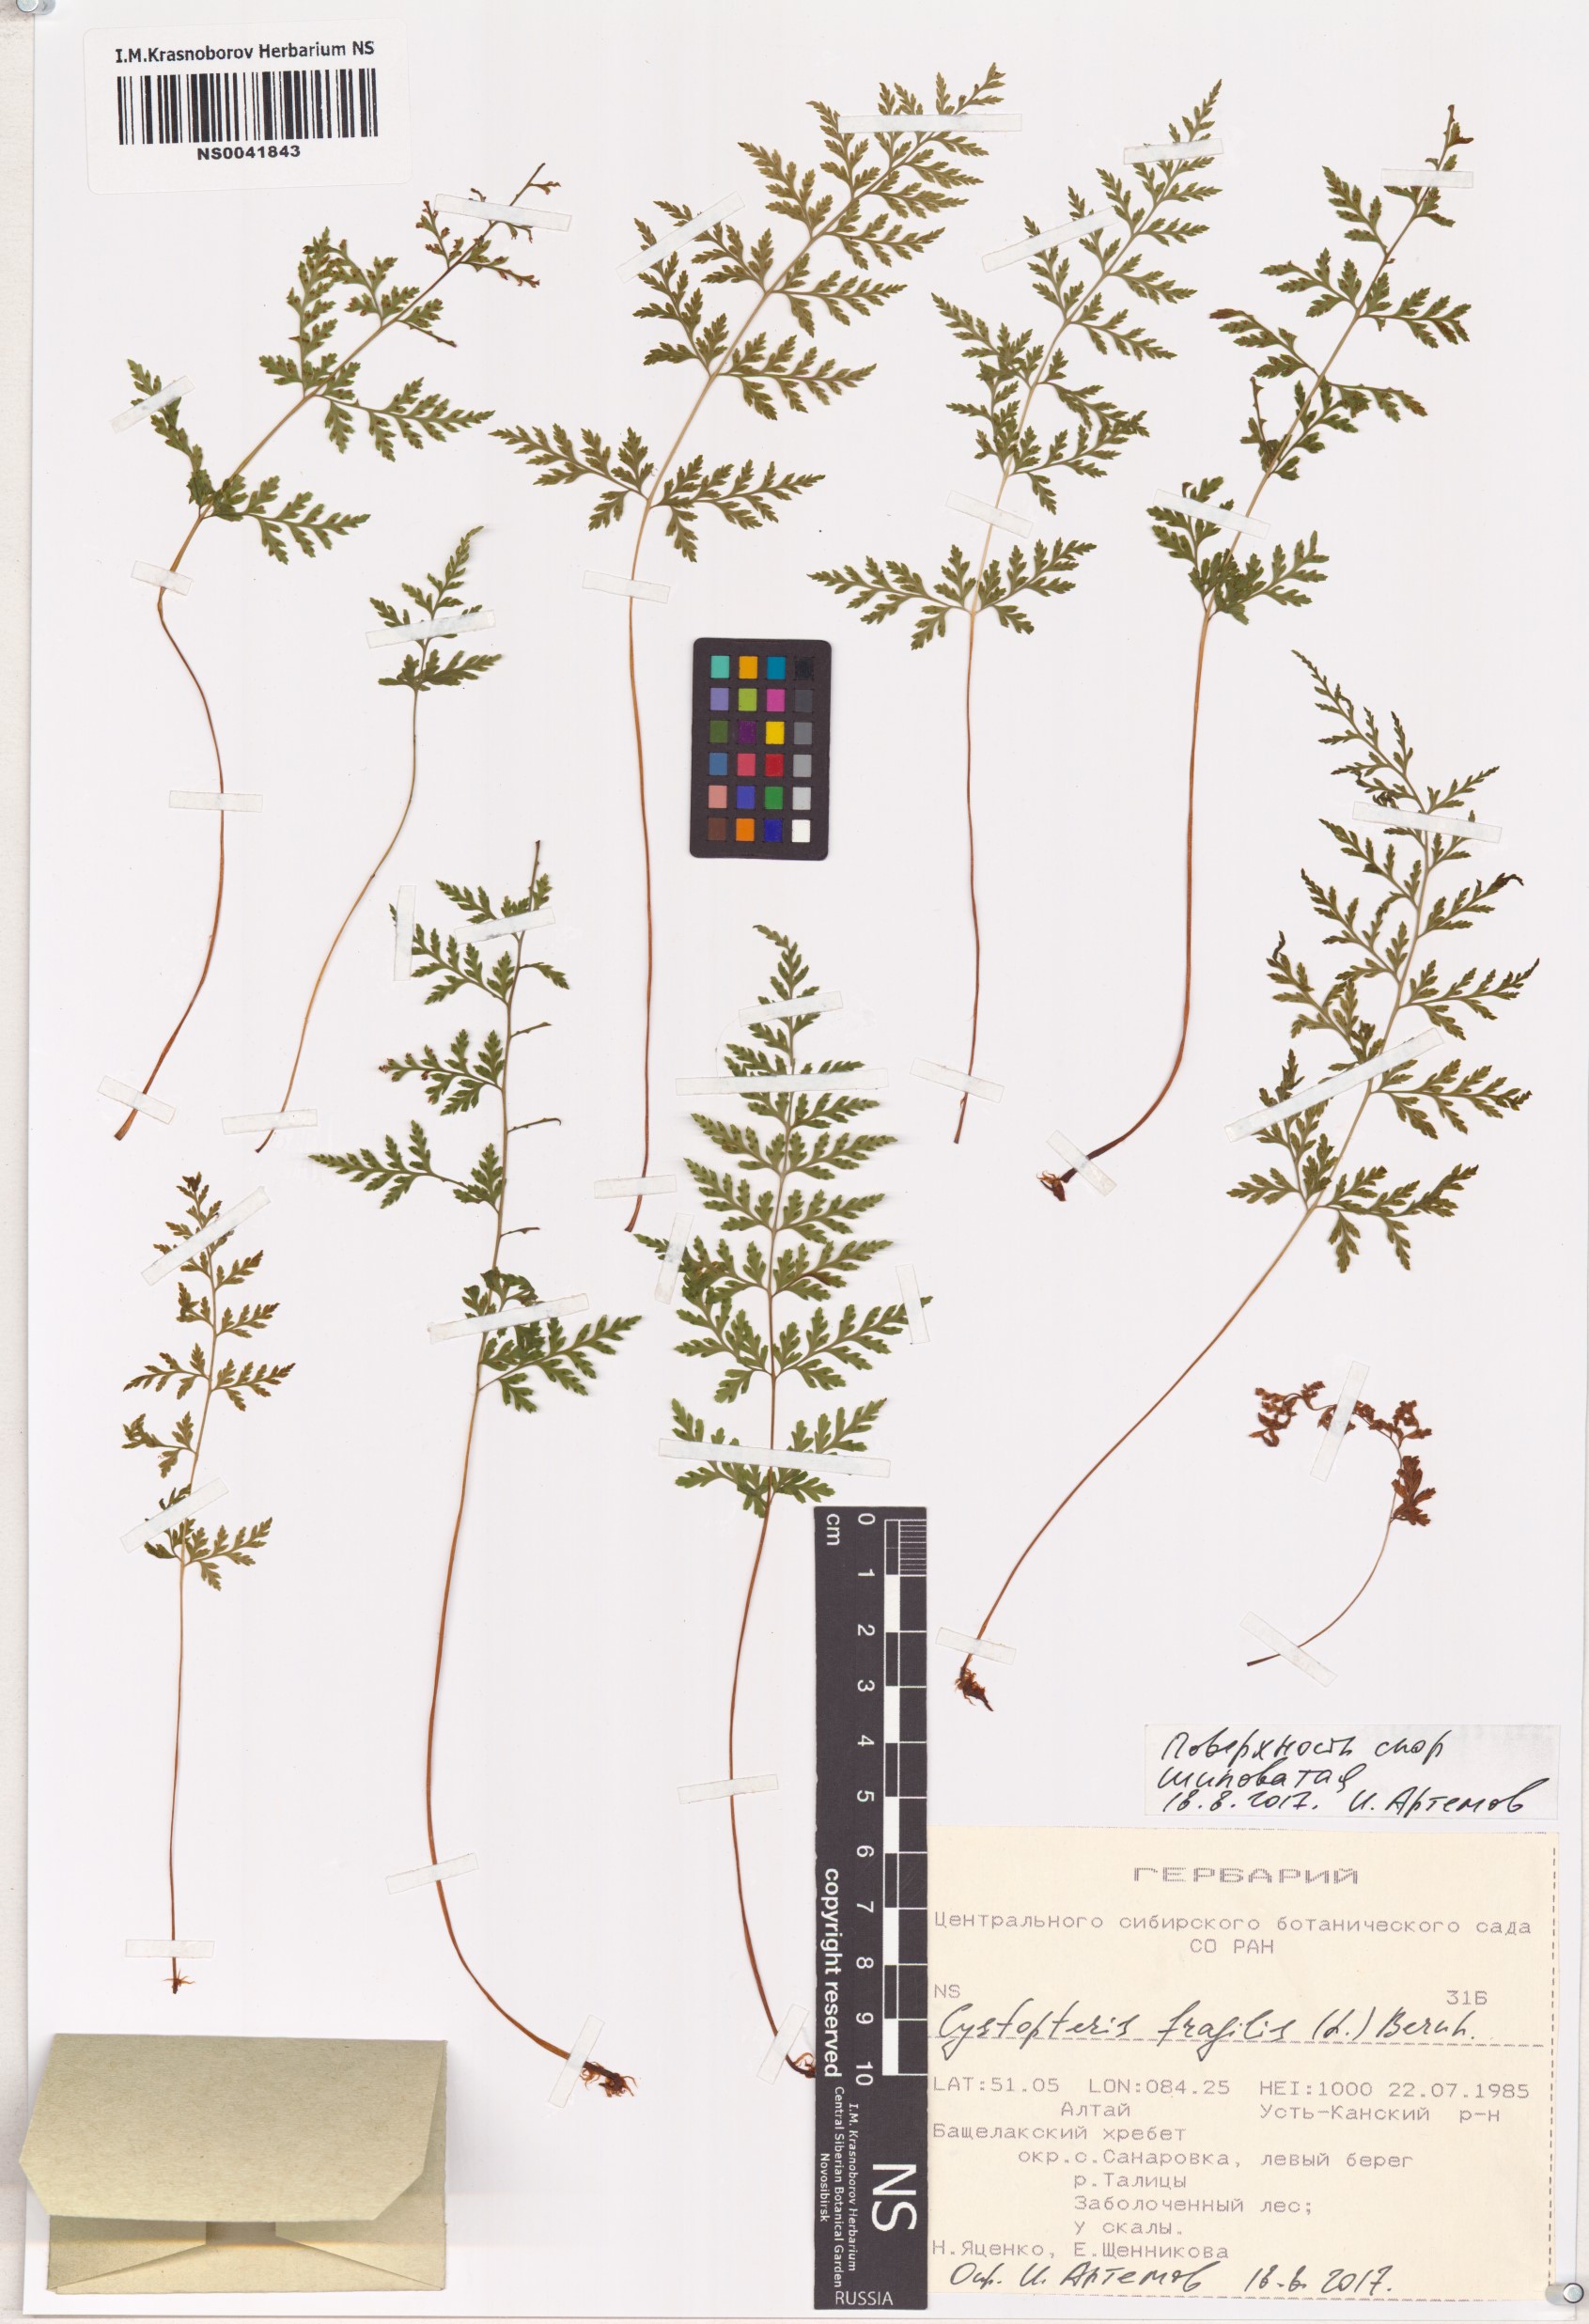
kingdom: Plantae
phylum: Tracheophyta
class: Polypodiopsida
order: Polypodiales
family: Cystopteridaceae
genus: Cystopteris
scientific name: Cystopteris fragilis
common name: Brittle bladder fern
